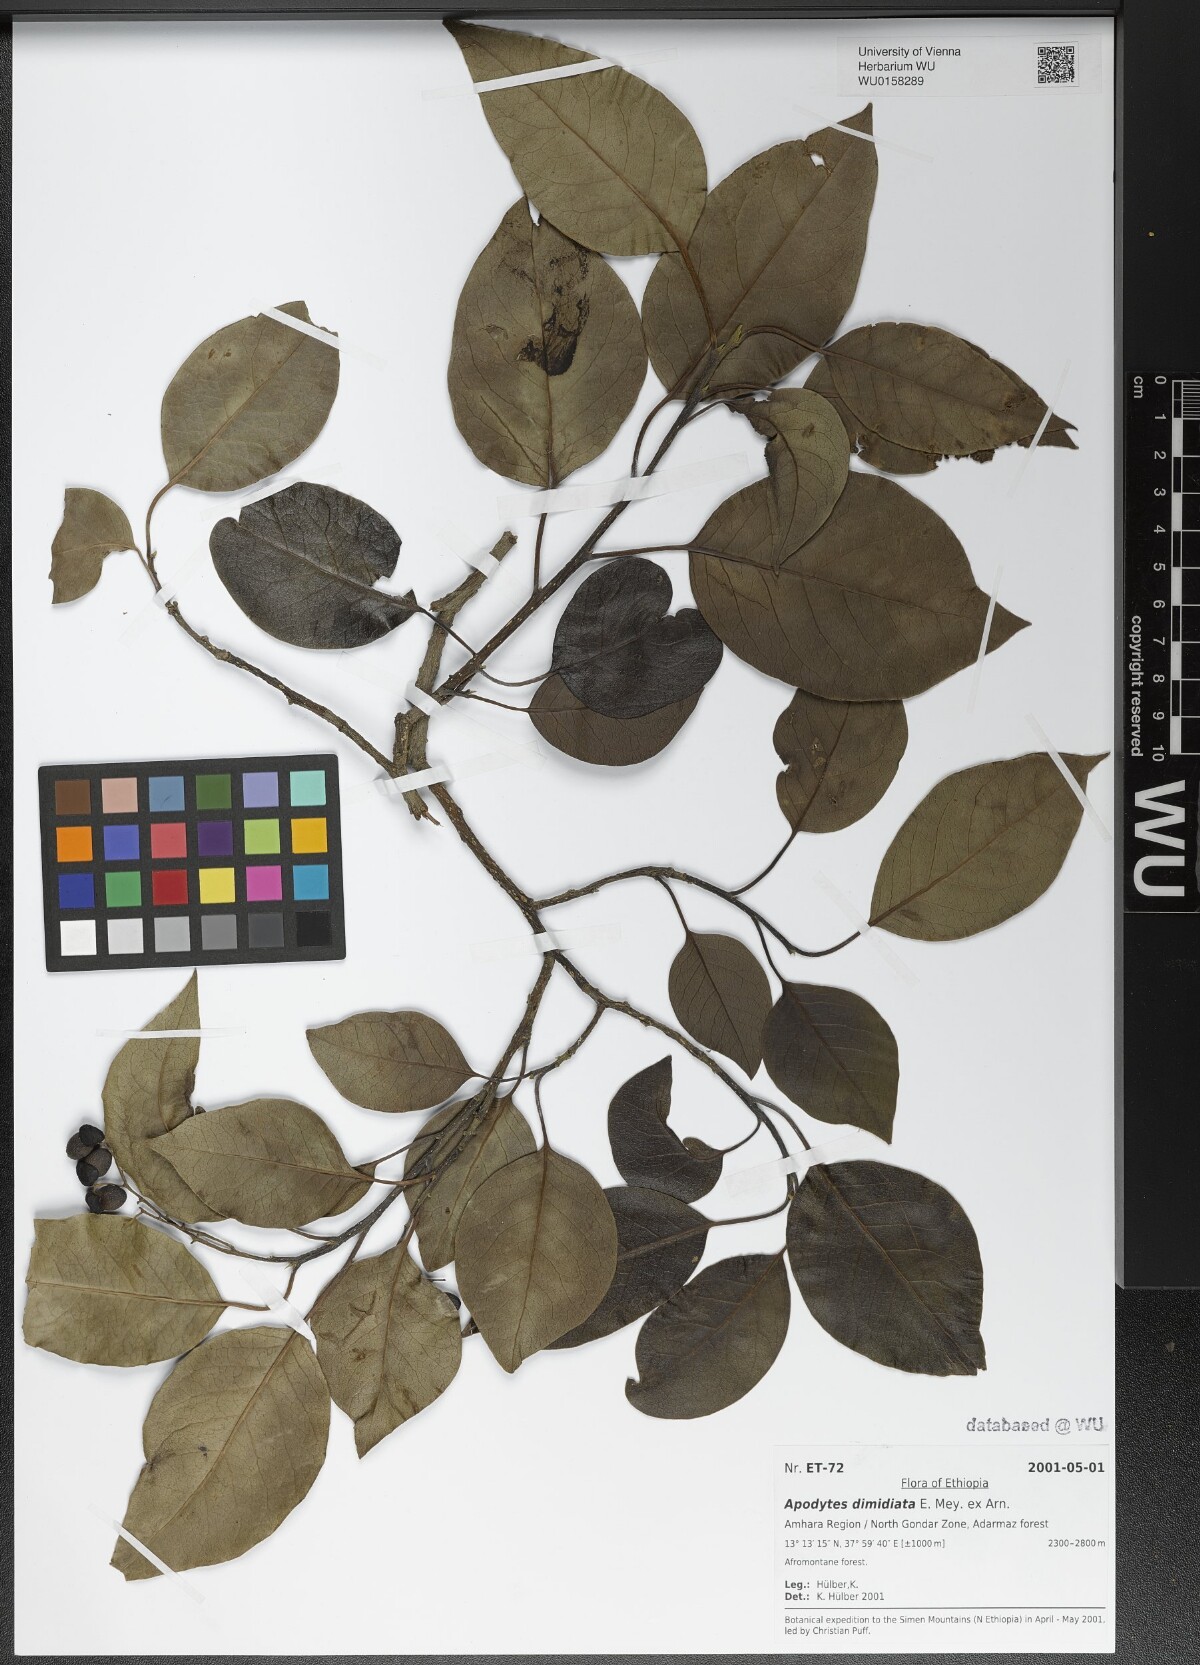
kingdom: Plantae
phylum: Tracheophyta
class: Magnoliopsida
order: Metteniusales
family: Metteniusaceae
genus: Apodytes
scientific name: Apodytes dimidiata
